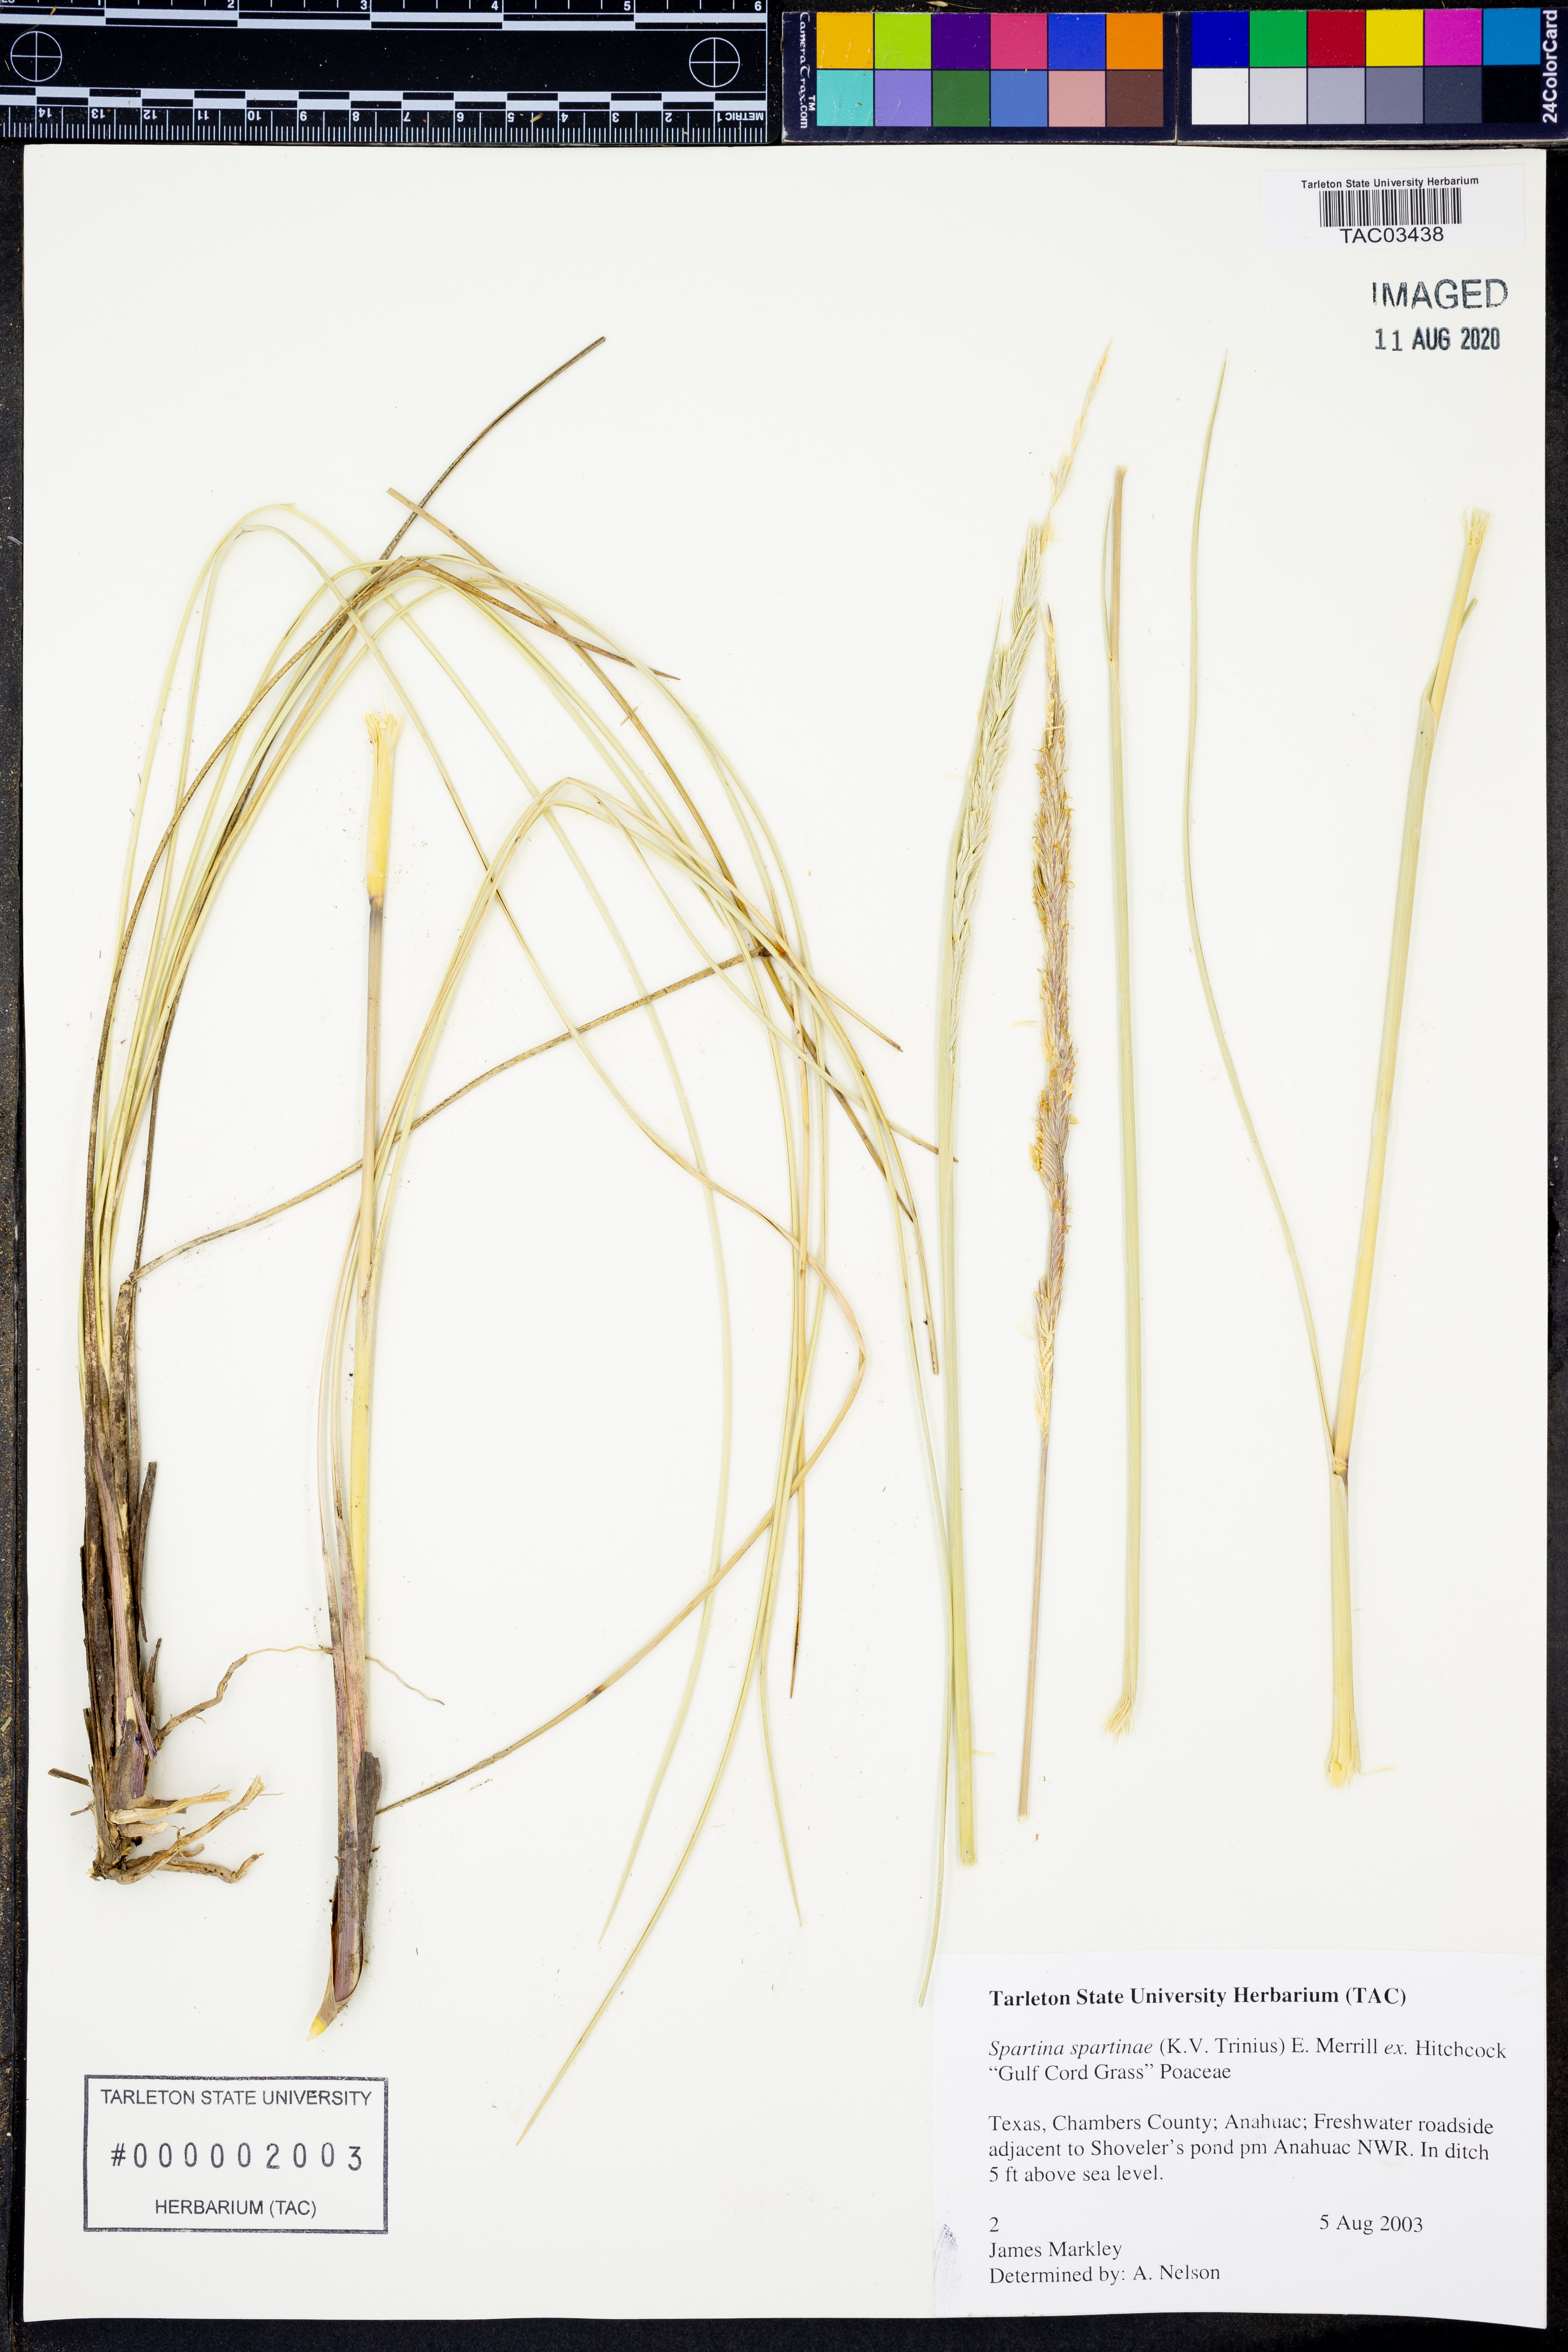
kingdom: Plantae
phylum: Tracheophyta
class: Liliopsida
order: Poales
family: Poaceae
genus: Sporobolus
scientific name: Sporobolus spartinae
